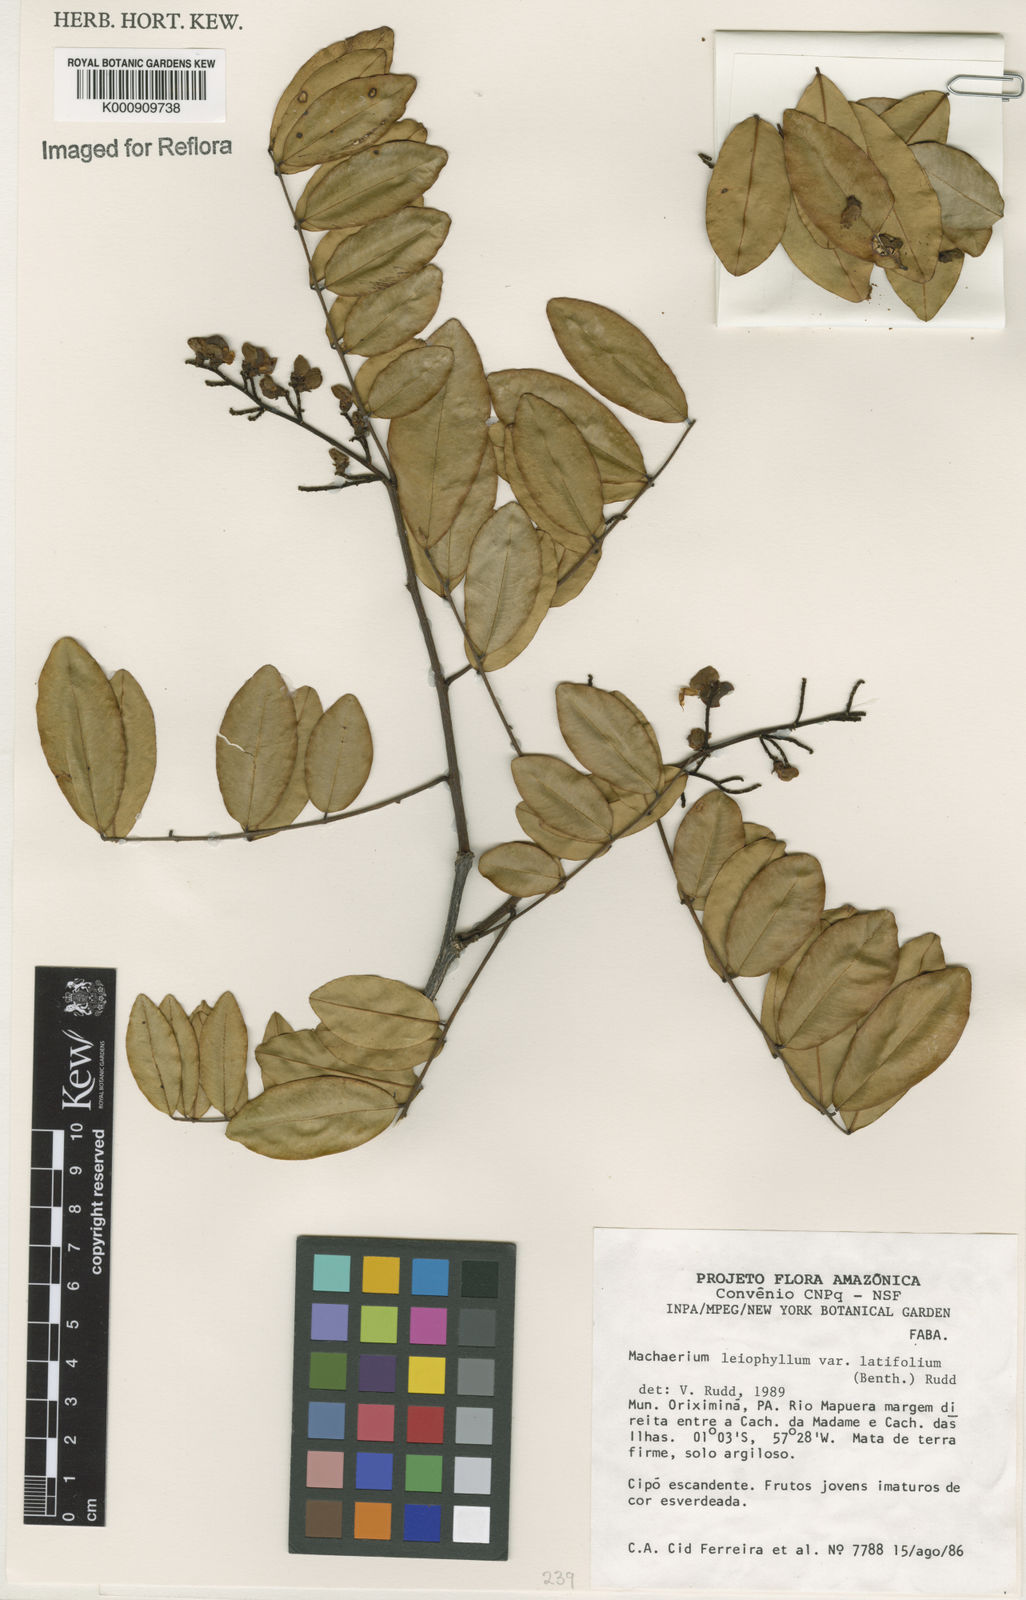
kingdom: Plantae
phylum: Tracheophyta
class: Magnoliopsida
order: Fabales
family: Fabaceae
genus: Machaerium
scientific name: Machaerium leiophyllum
